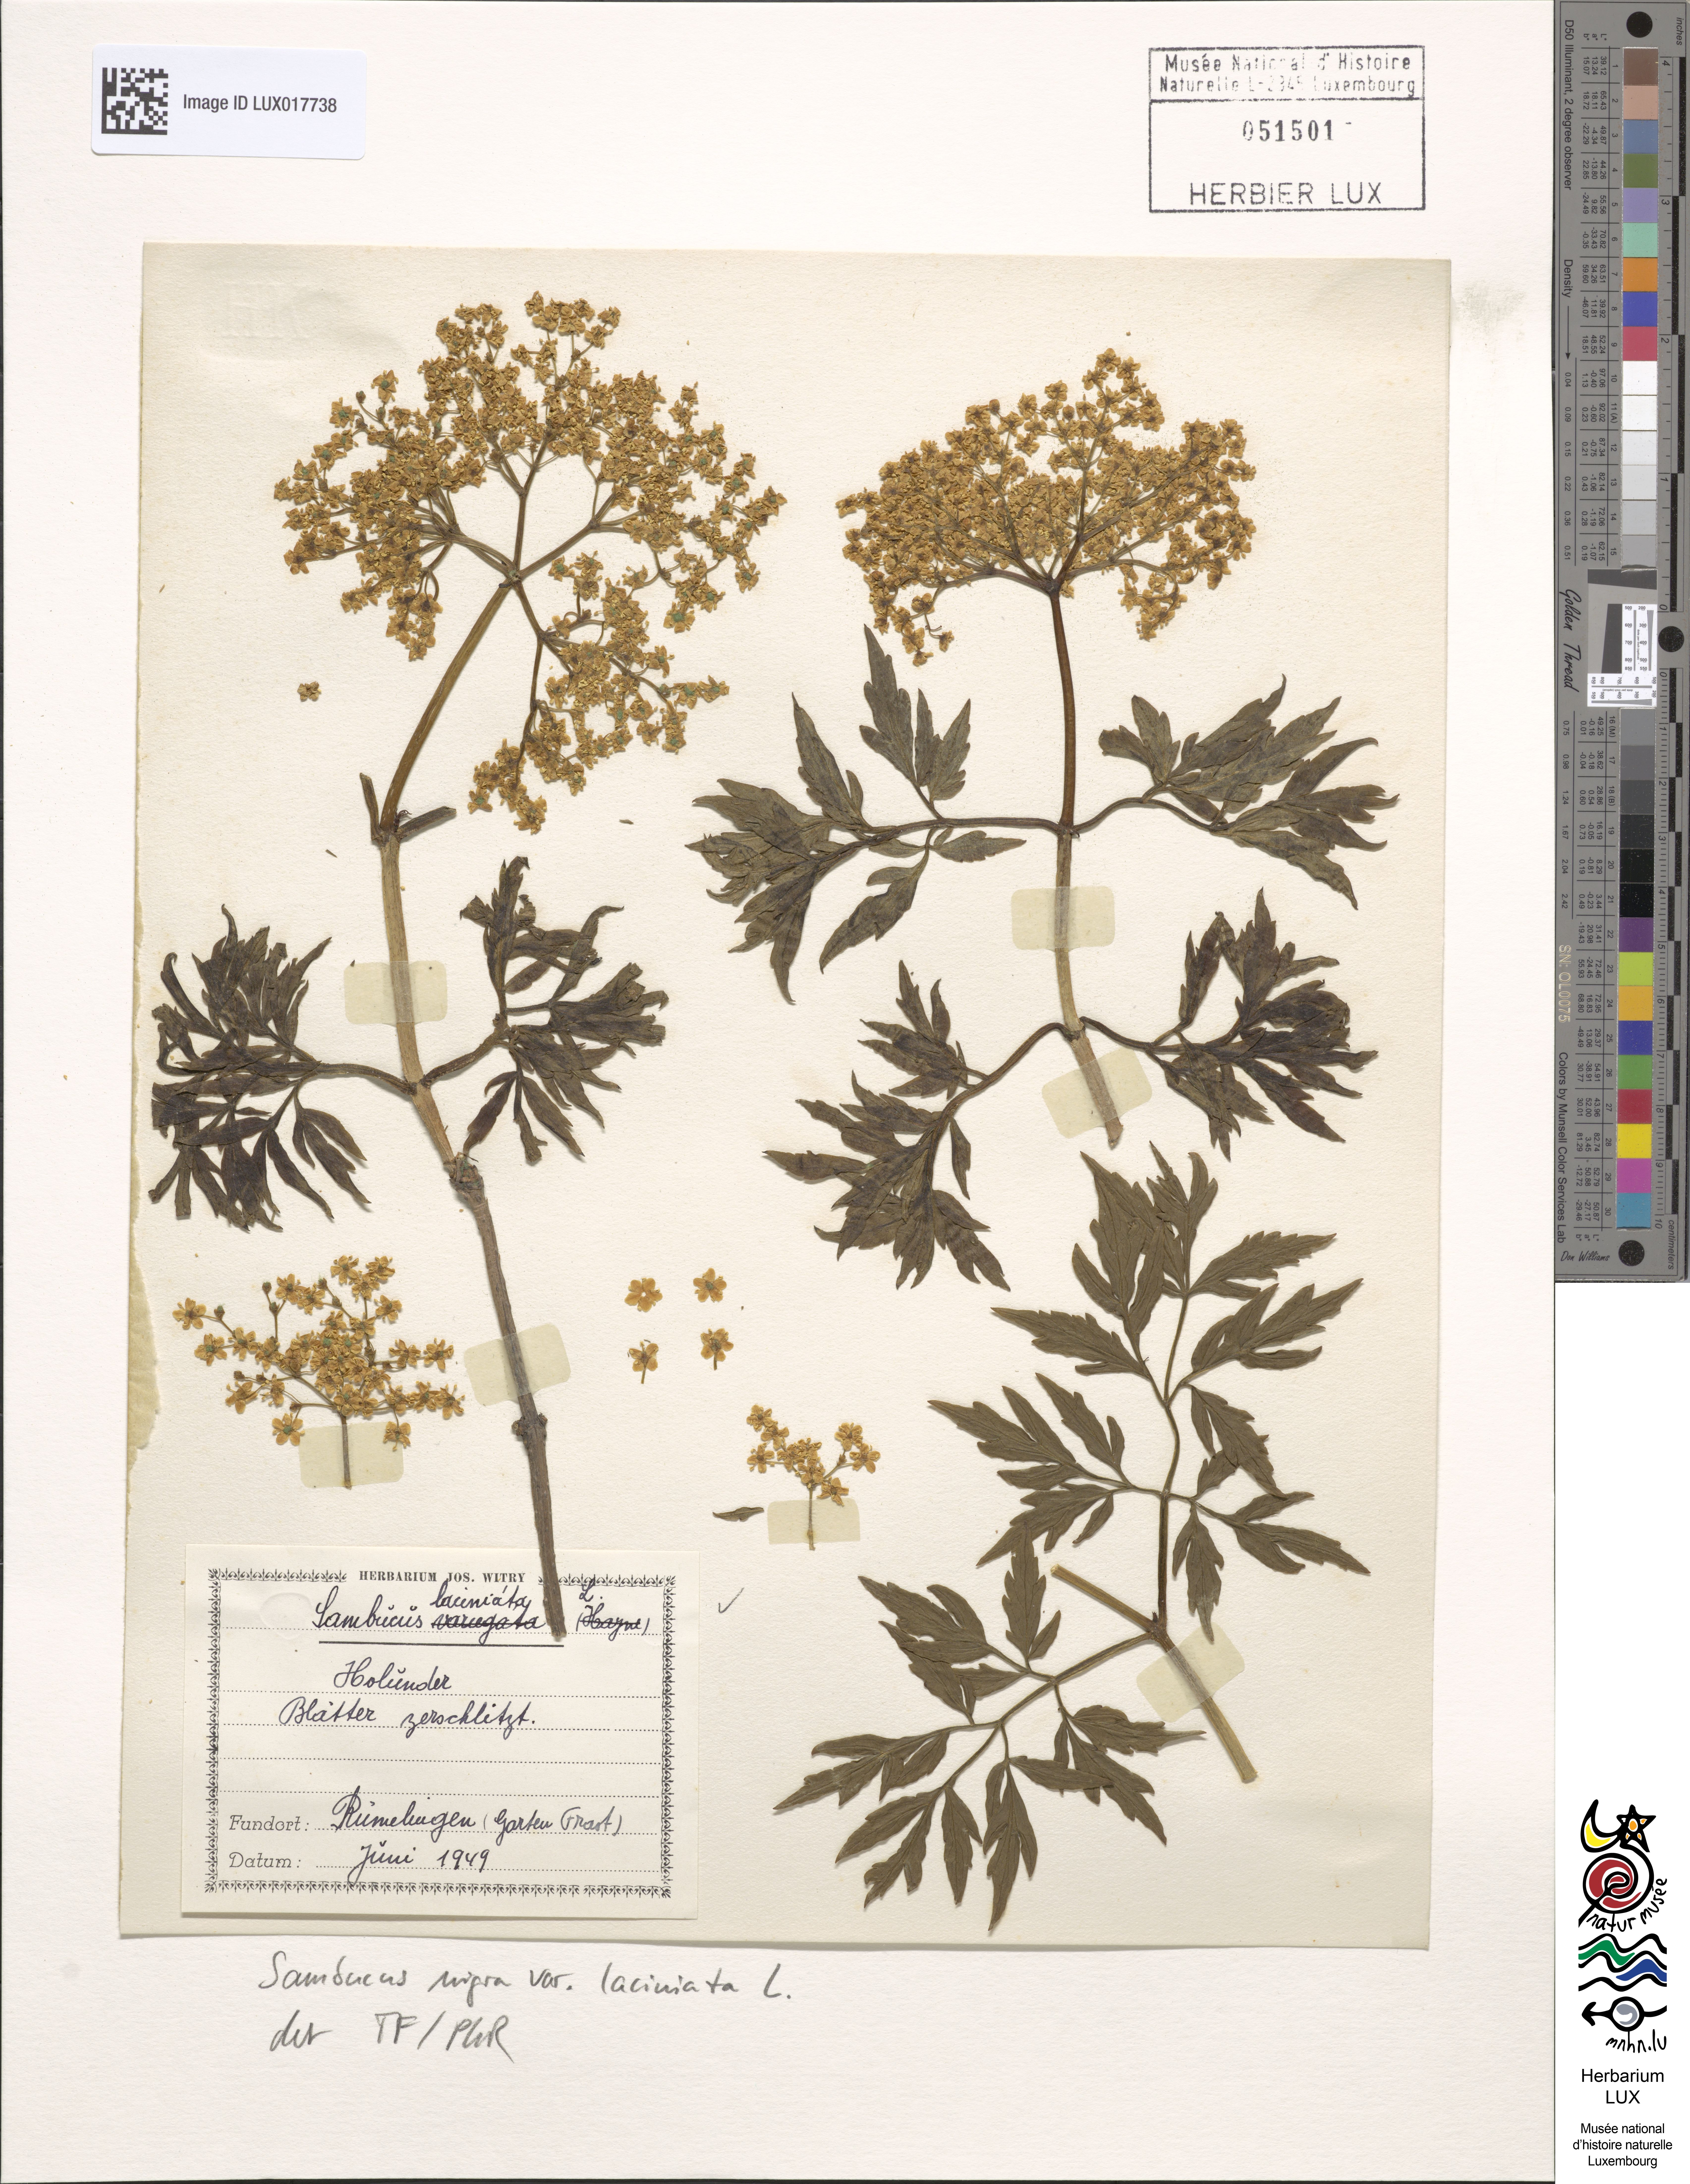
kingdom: Plantae
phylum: Tracheophyta
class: Magnoliopsida
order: Dipsacales
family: Viburnaceae
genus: Sambucus
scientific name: Sambucus nigra
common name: Elder
